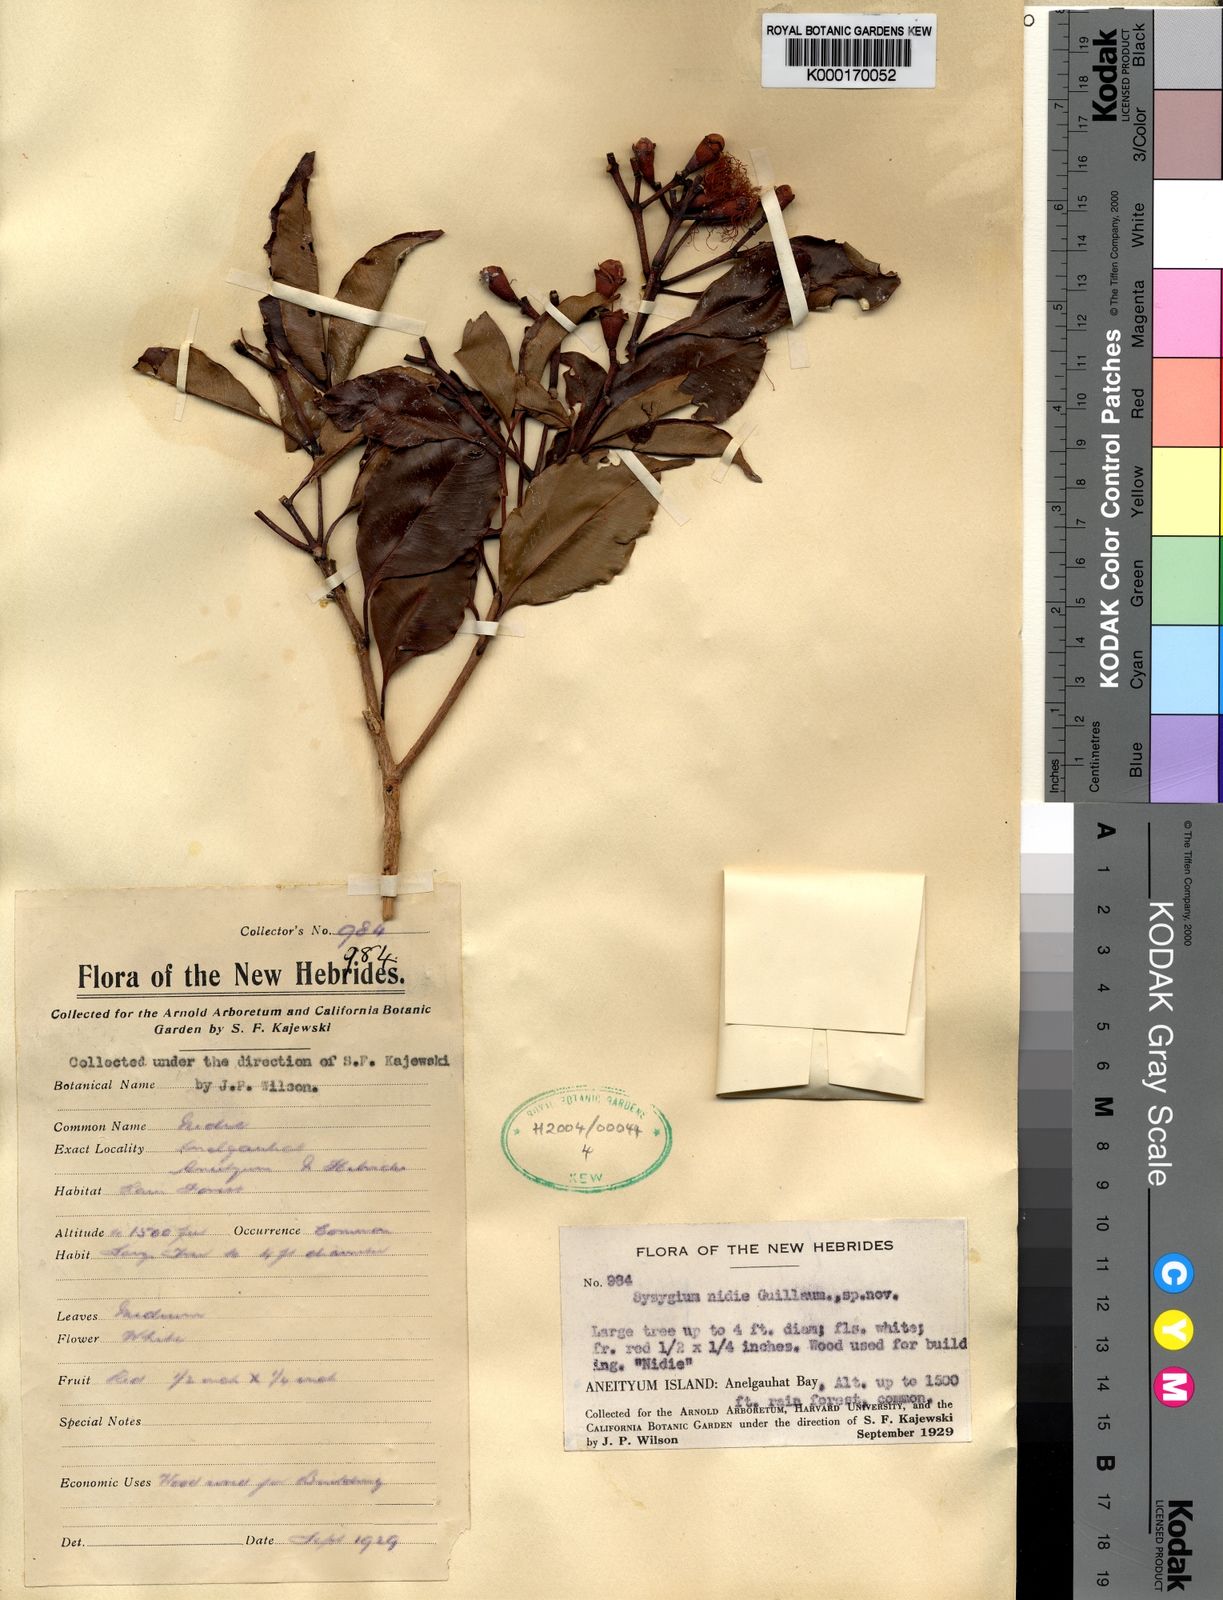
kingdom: Plantae
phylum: Tracheophyta
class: Magnoliopsida
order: Myrtales
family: Myrtaceae
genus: Syzygium
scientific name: Syzygium nidie
